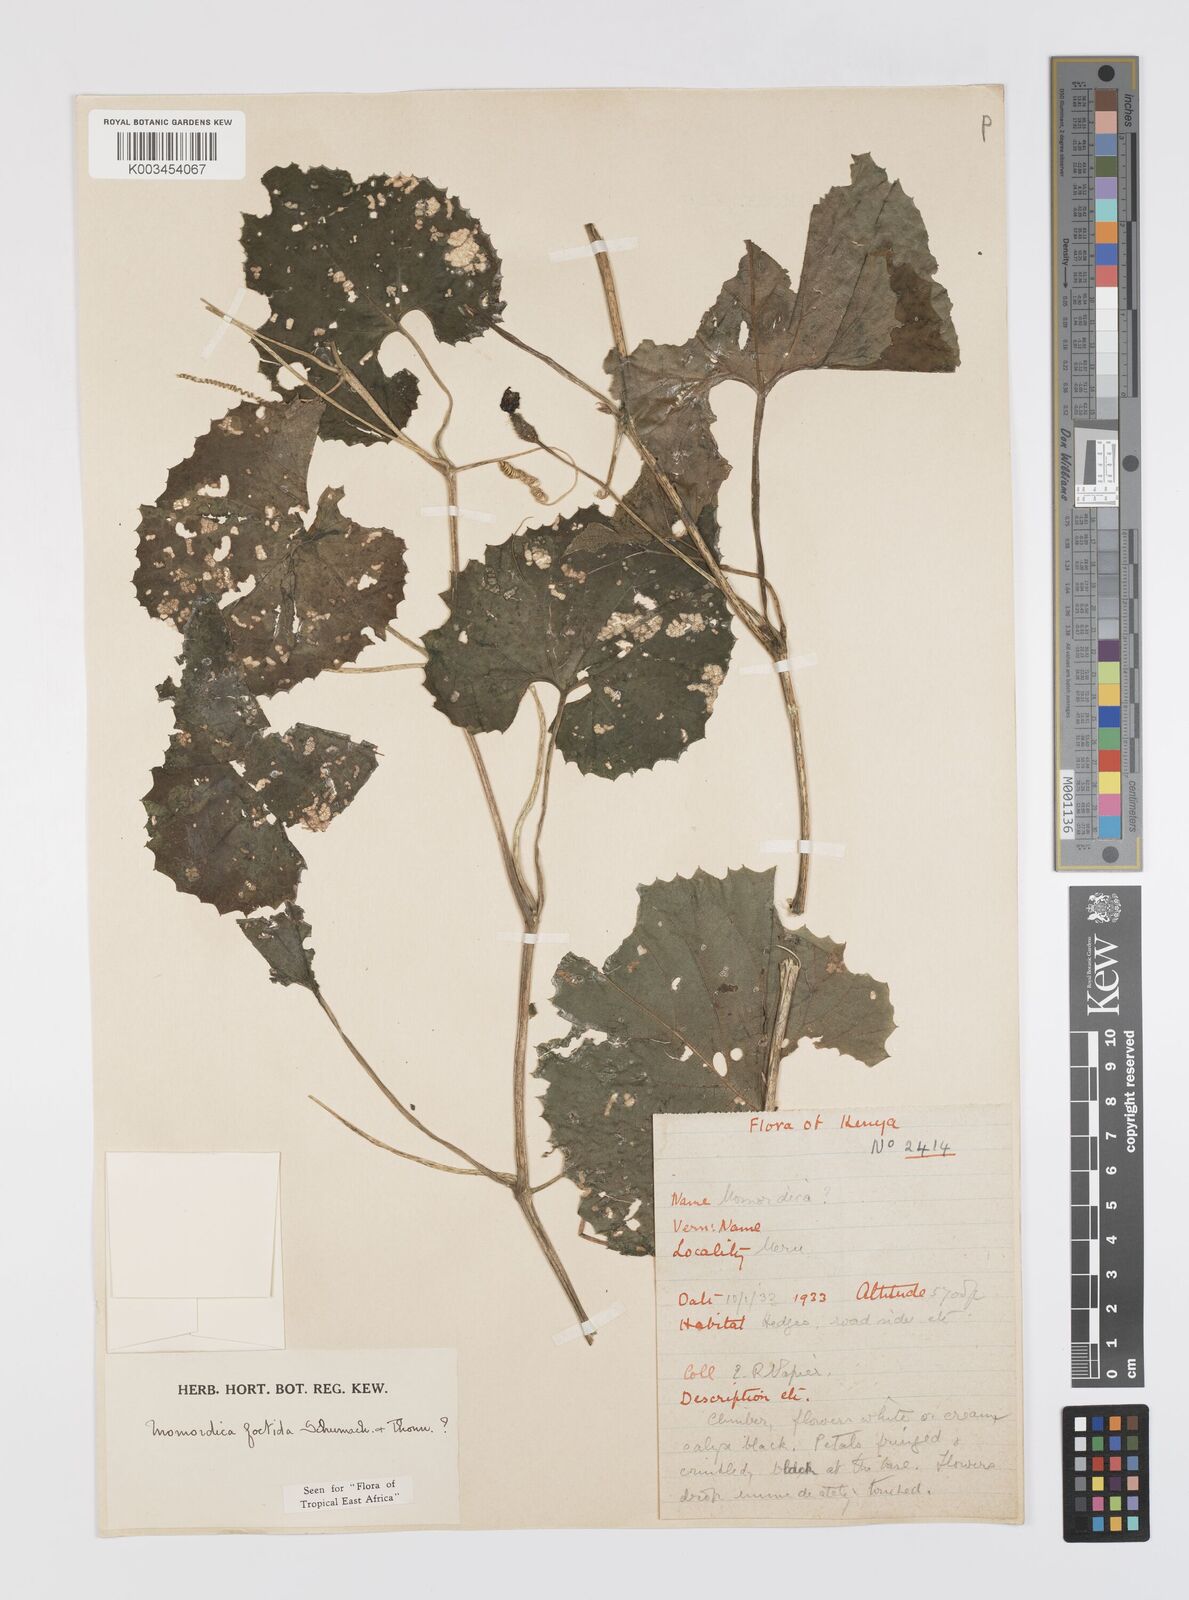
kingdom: Plantae
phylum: Tracheophyta
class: Magnoliopsida
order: Cucurbitales
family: Cucurbitaceae
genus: Momordica
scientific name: Momordica foetida
